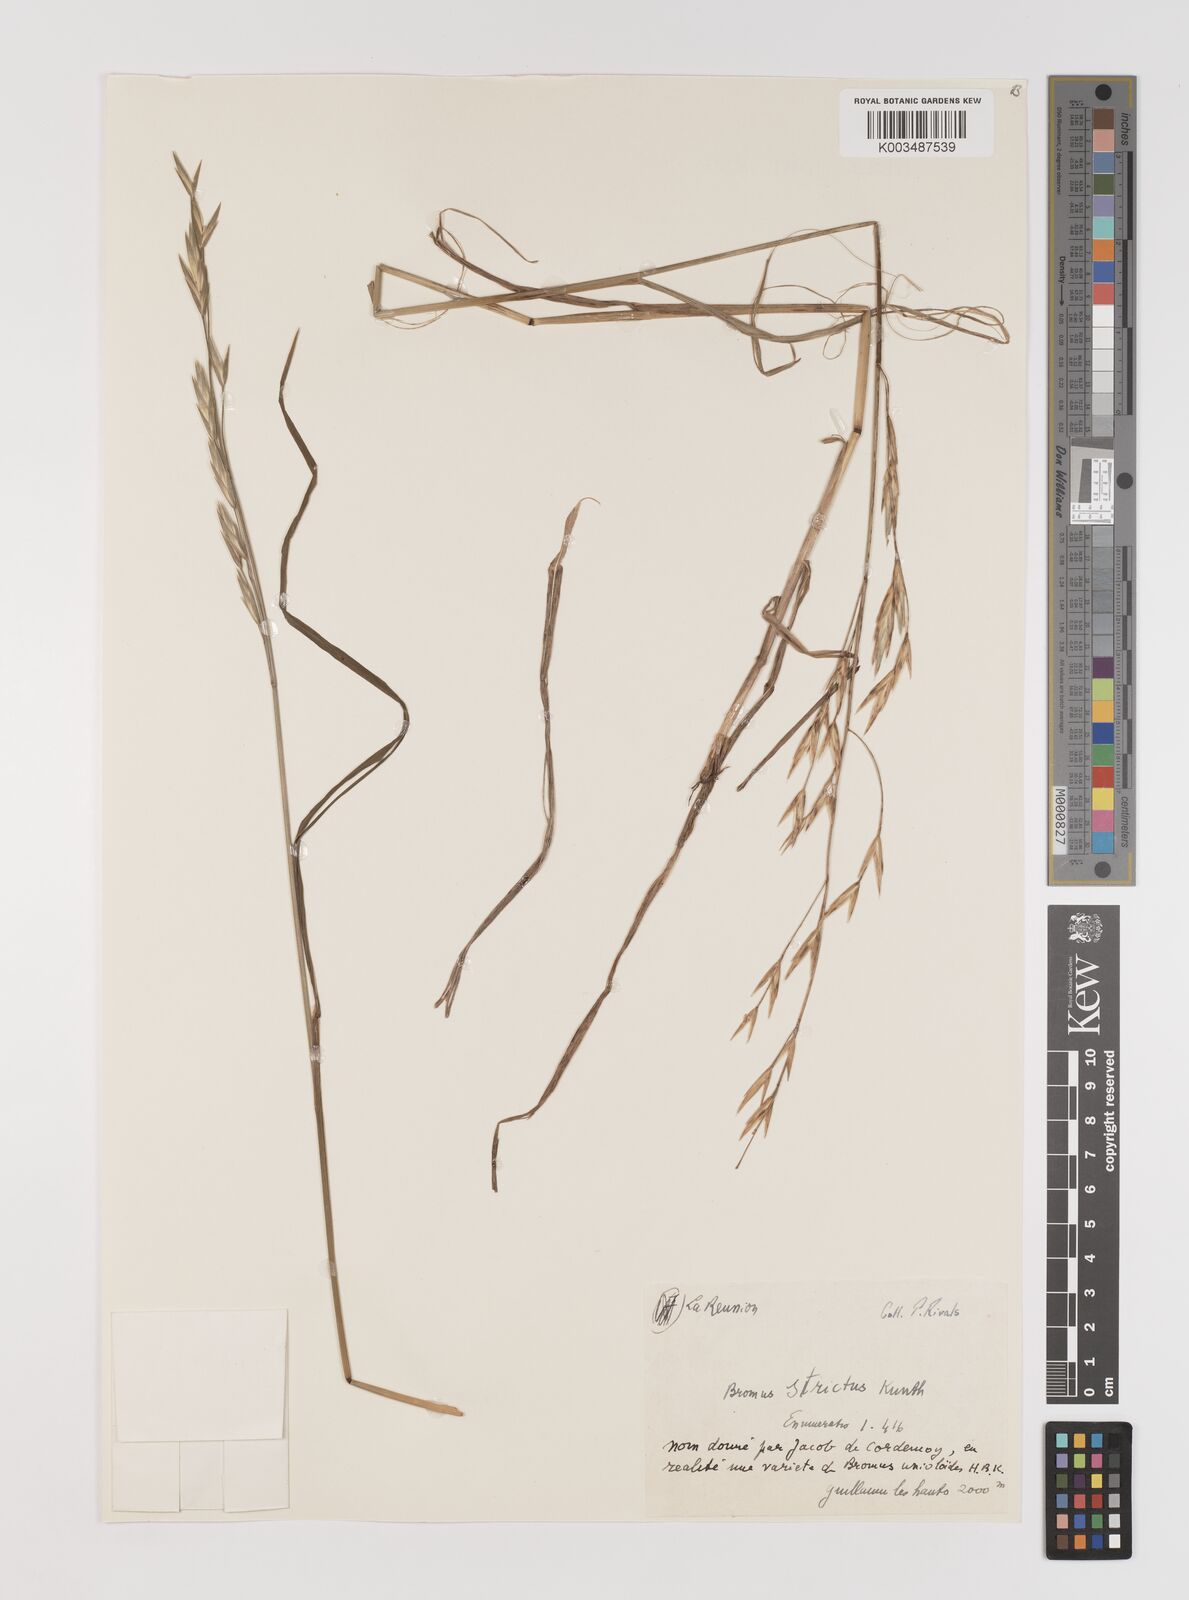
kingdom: Plantae
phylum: Tracheophyta
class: Liliopsida
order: Poales
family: Poaceae
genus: Bromus
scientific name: Bromus catharticus
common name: Rescuegrass
